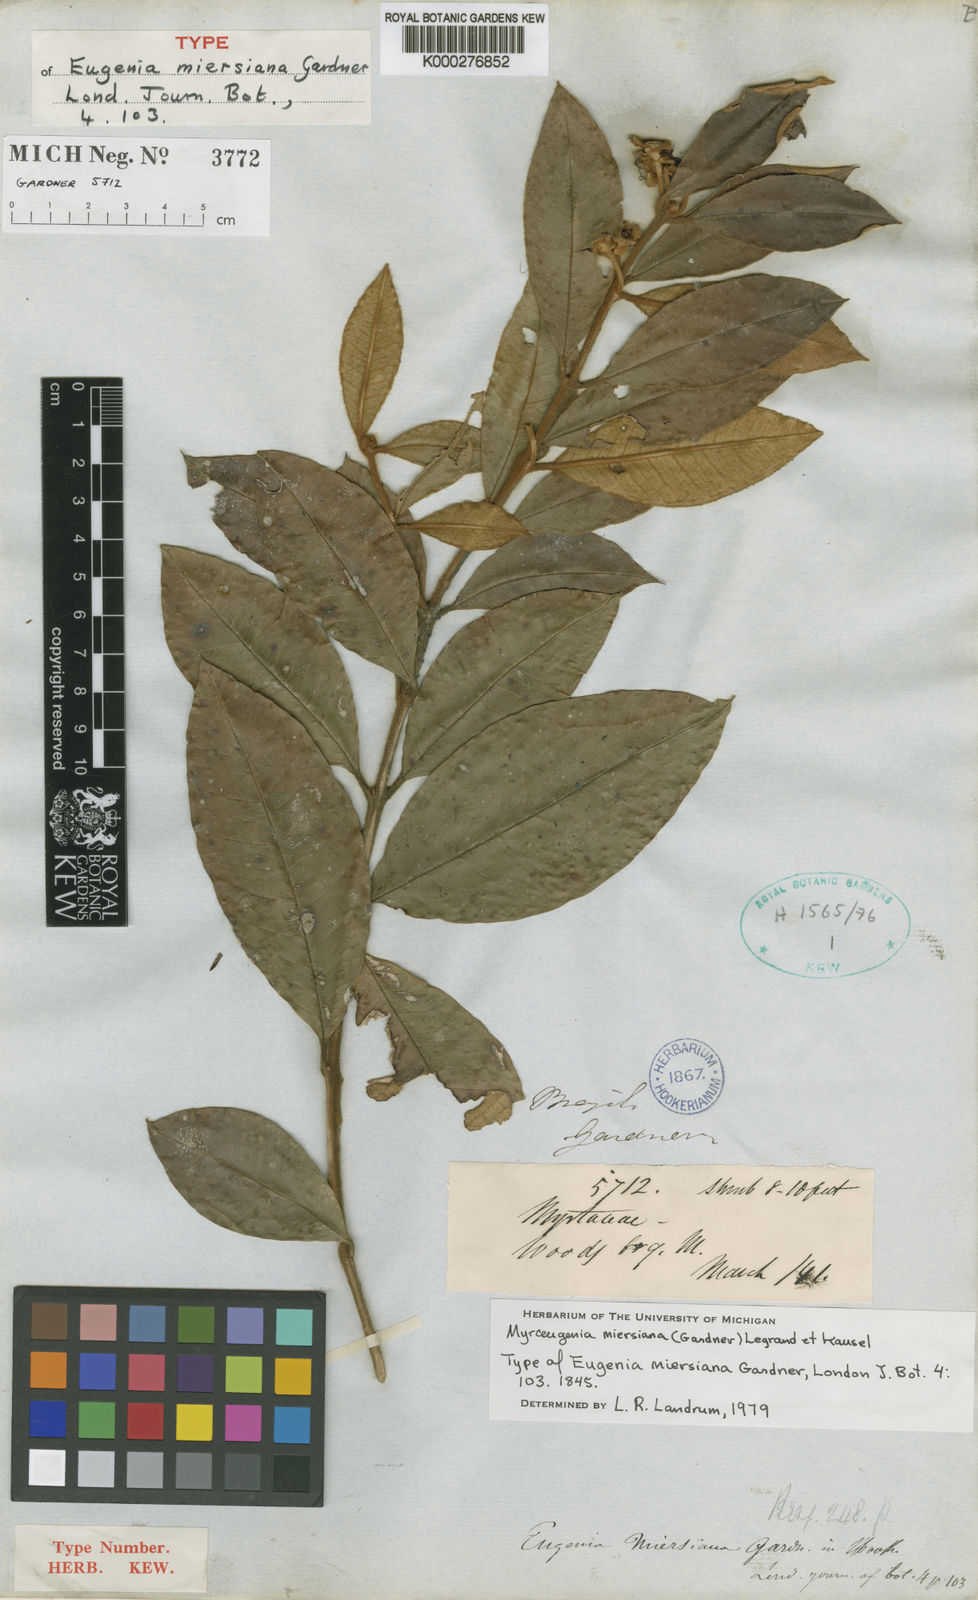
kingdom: Plantae
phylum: Tracheophyta
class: Magnoliopsida
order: Myrtales
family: Myrtaceae
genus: Myrceugenia
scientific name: Myrceugenia miersiana
